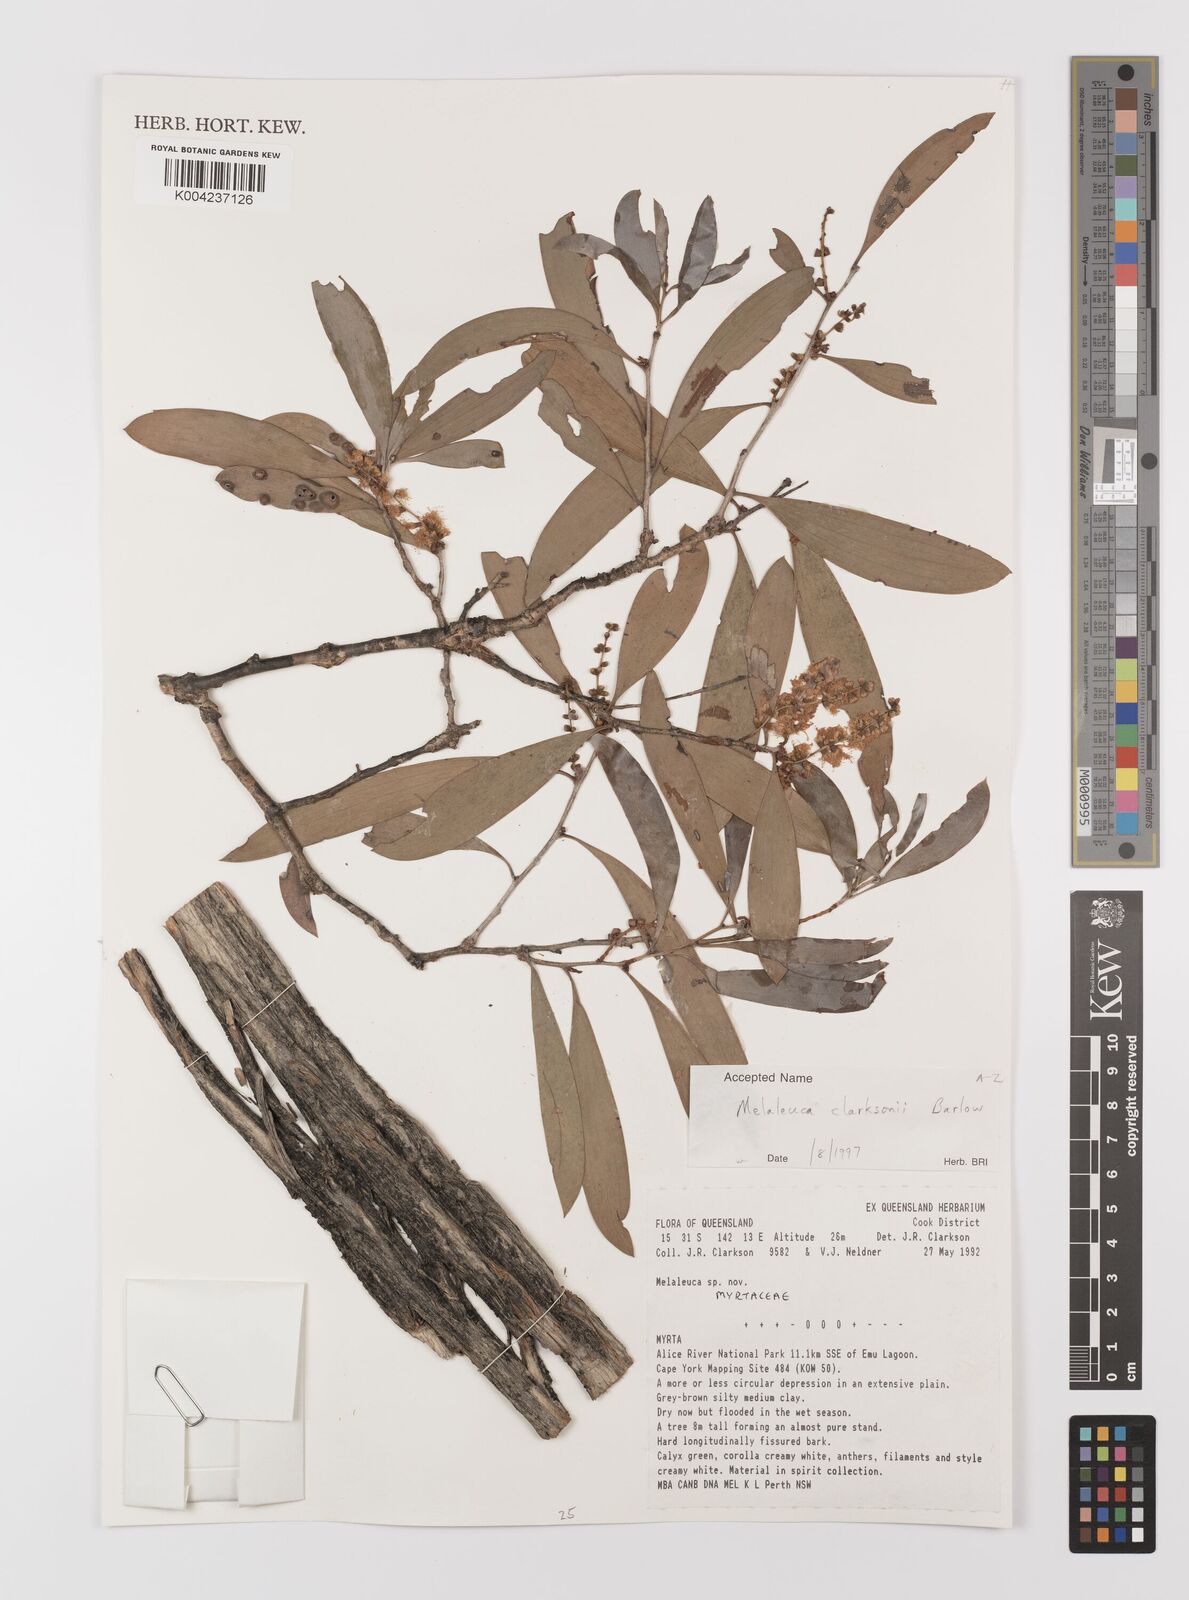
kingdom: Plantae
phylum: Tracheophyta
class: Magnoliopsida
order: Myrtales
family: Myrtaceae
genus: Melaleuca
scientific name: Melaleuca clarksonii
